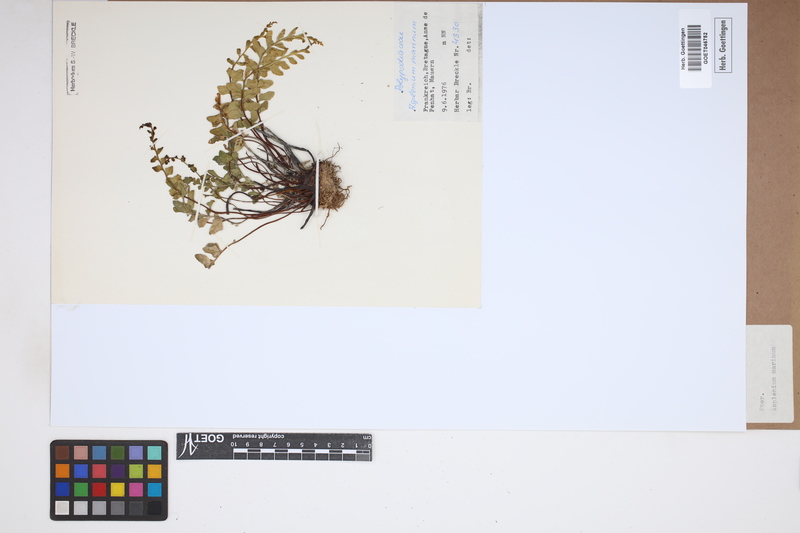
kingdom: Plantae
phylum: Tracheophyta
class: Polypodiopsida
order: Polypodiales
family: Aspleniaceae
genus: Asplenium
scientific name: Asplenium marinum
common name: Sea spleenwort
